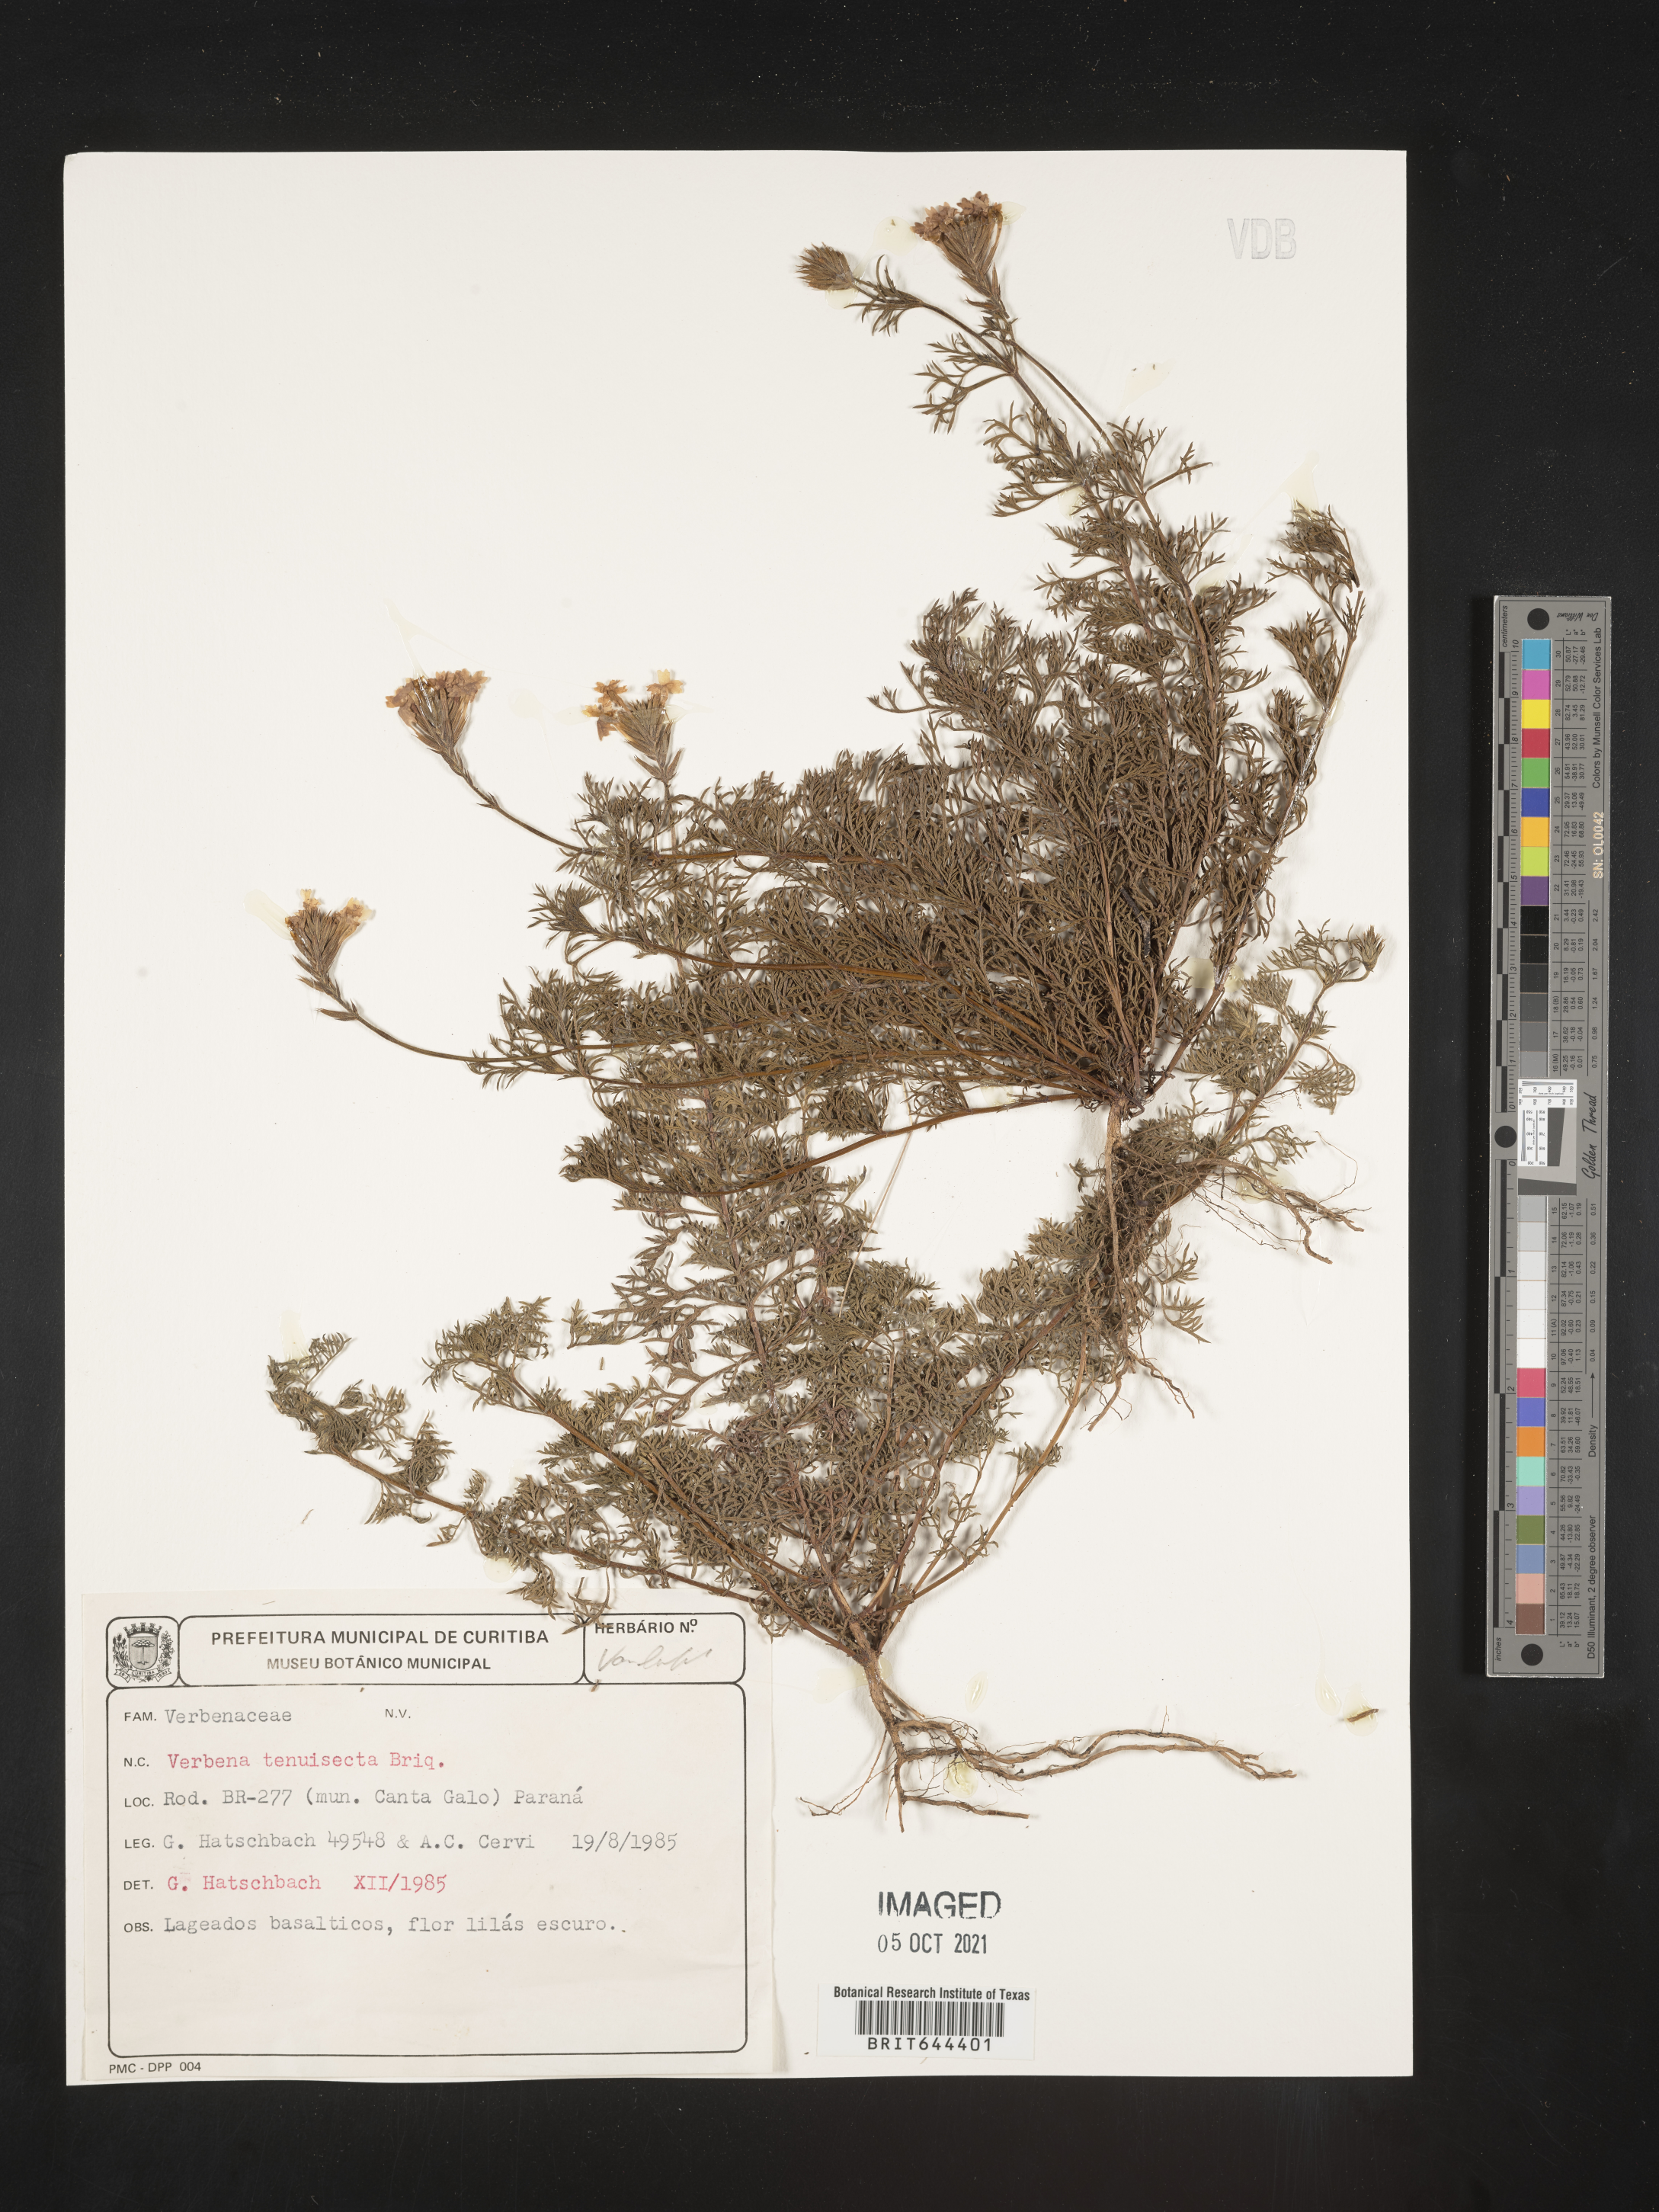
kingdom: Plantae
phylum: Tracheophyta
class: Magnoliopsida
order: Lamiales
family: Verbenaceae
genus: Verbena
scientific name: Verbena
